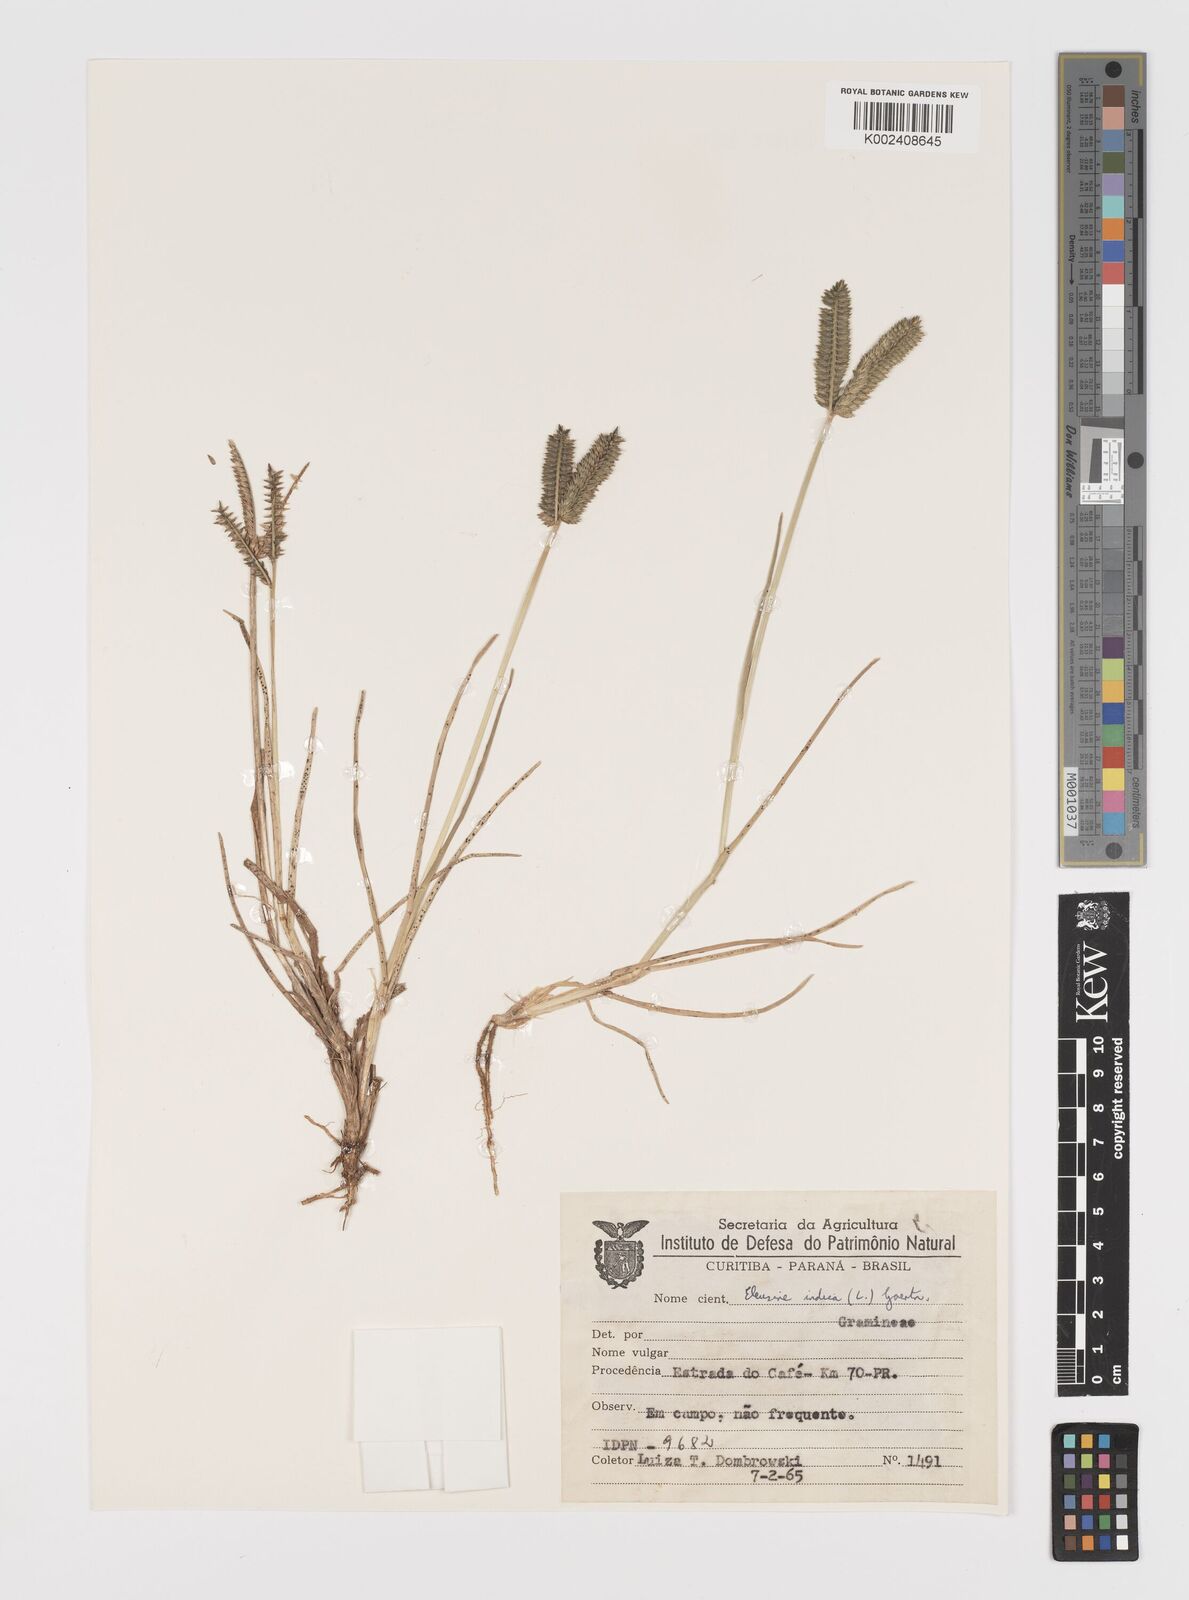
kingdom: Plantae
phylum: Tracheophyta
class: Liliopsida
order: Poales
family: Poaceae
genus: Eleusine
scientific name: Eleusine tristachya
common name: American yard-grass
